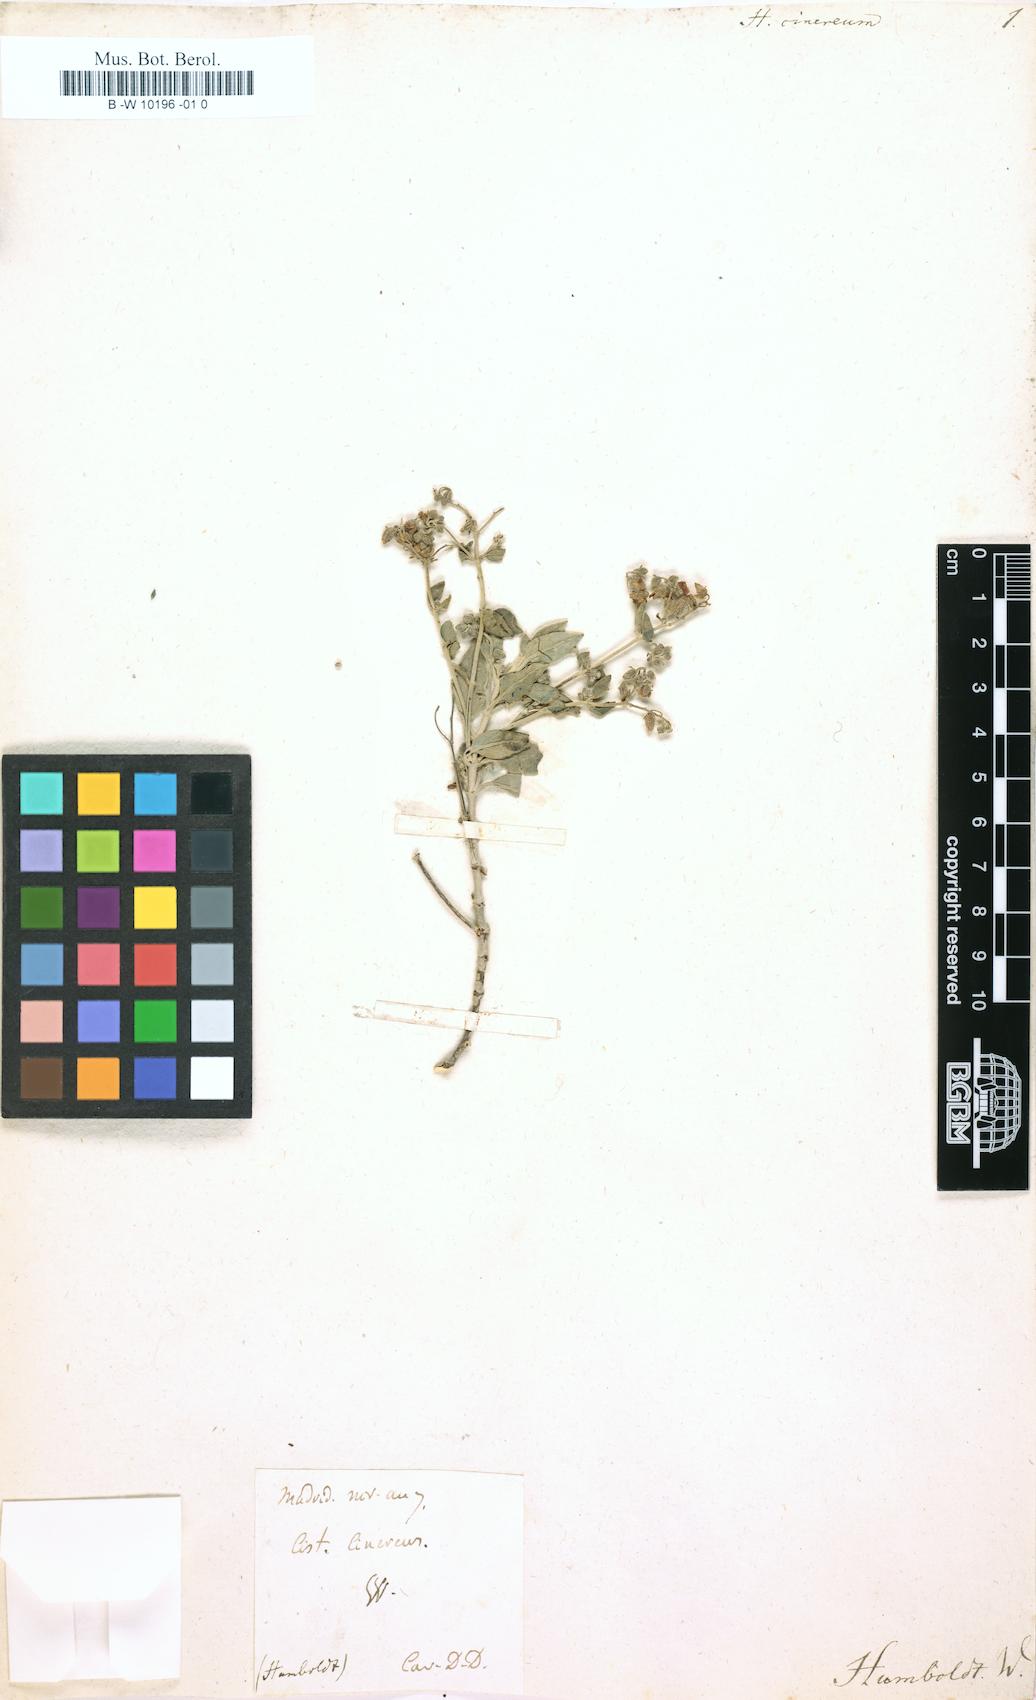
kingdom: Plantae
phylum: Tracheophyta
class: Magnoliopsida
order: Malvales
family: Cistaceae
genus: Helianthemum
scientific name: Helianthemum cinereum
